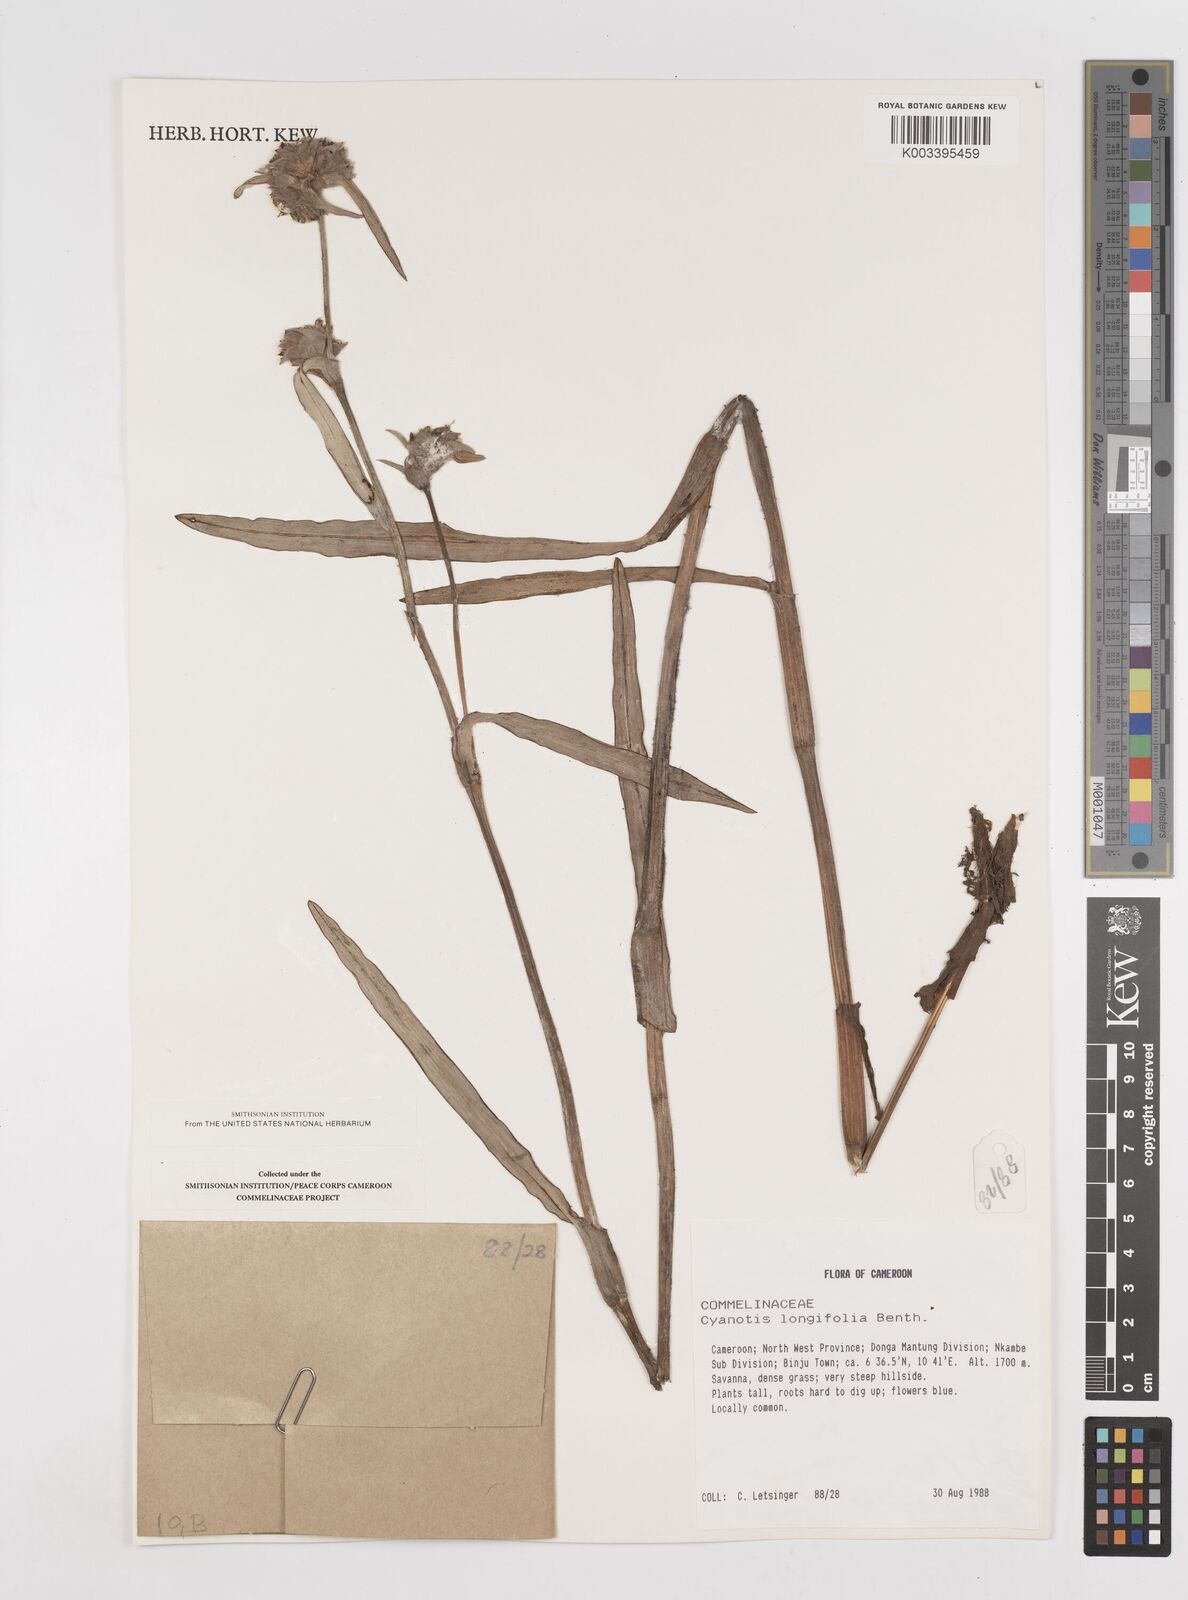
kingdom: Plantae
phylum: Tracheophyta
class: Liliopsida
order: Commelinales
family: Commelinaceae
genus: Cyanotis
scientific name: Cyanotis longifolia
